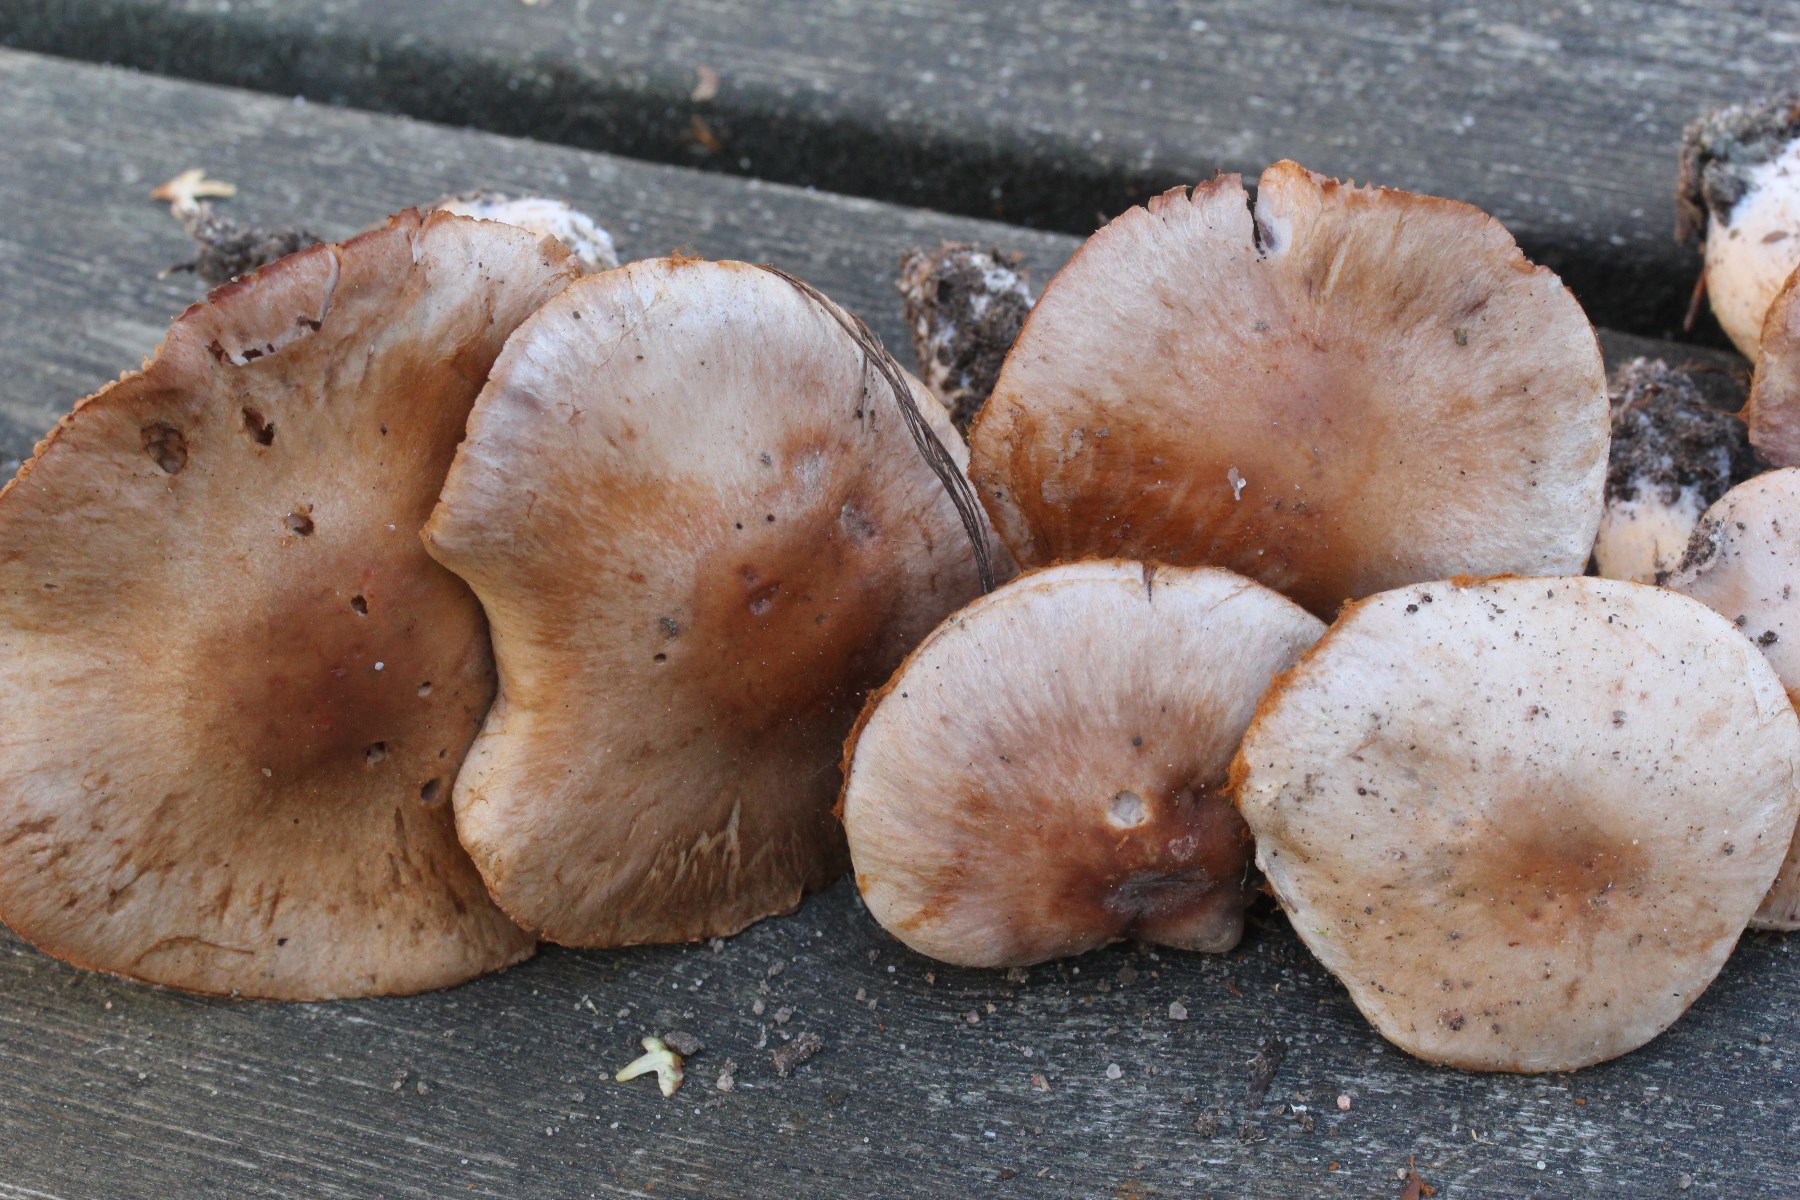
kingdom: Fungi
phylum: Basidiomycota
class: Agaricomycetes
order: Agaricales
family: Cortinariaceae
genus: Cortinarius
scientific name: Cortinarius lucorum
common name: aspe-slørhat
